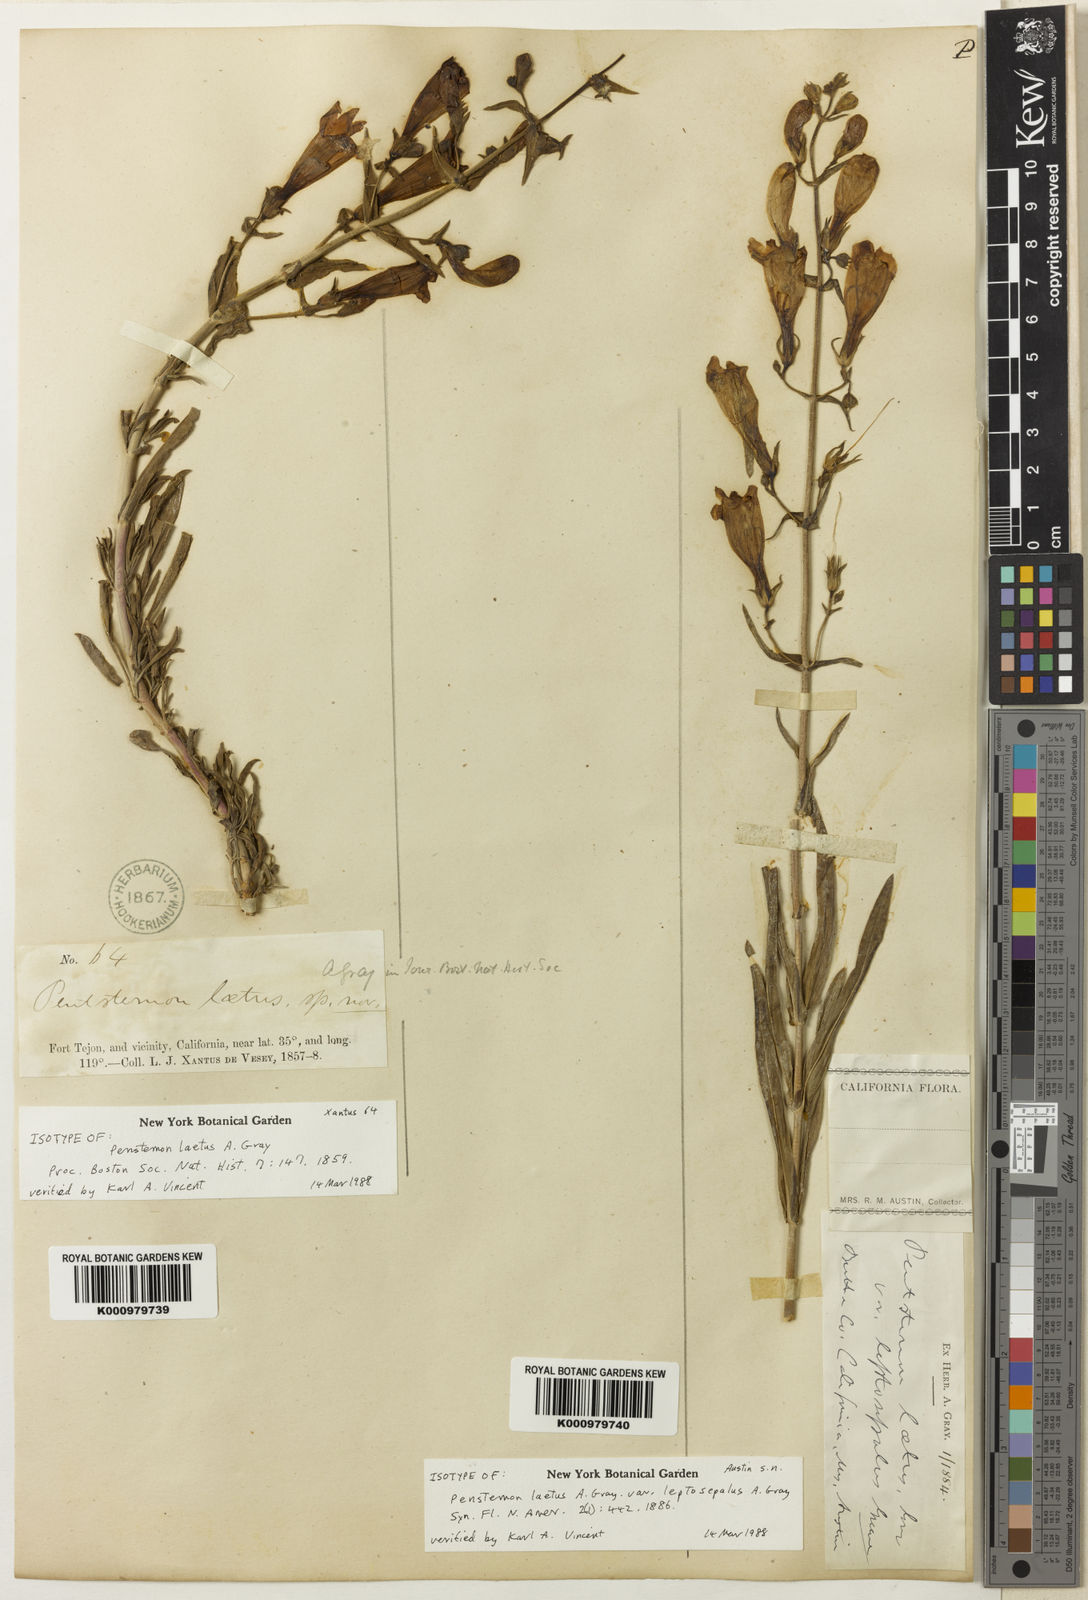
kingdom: Plantae
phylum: Tracheophyta
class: Magnoliopsida
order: Lamiales
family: Plantaginaceae
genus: Penstemon
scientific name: Penstemon
